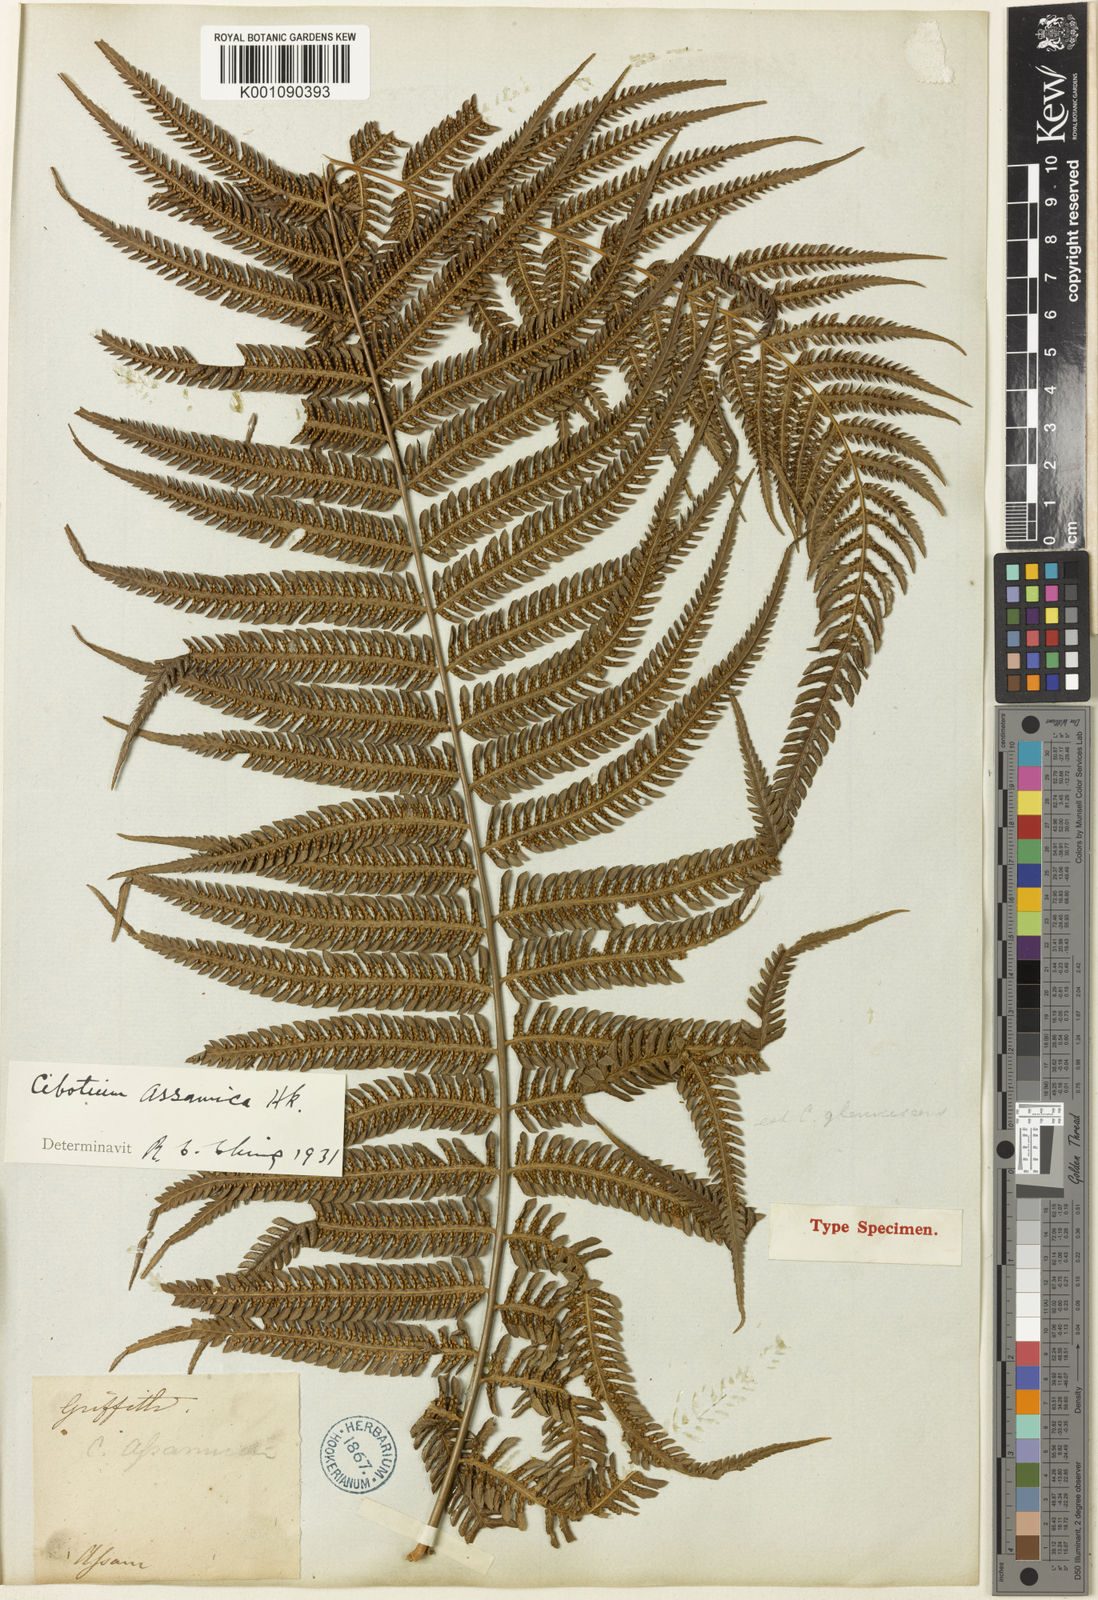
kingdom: Plantae
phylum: Tracheophyta
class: Polypodiopsida
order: Cyatheales
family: Cibotiaceae
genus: Cibotium
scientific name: Cibotium barometz
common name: Scythian-lamb
